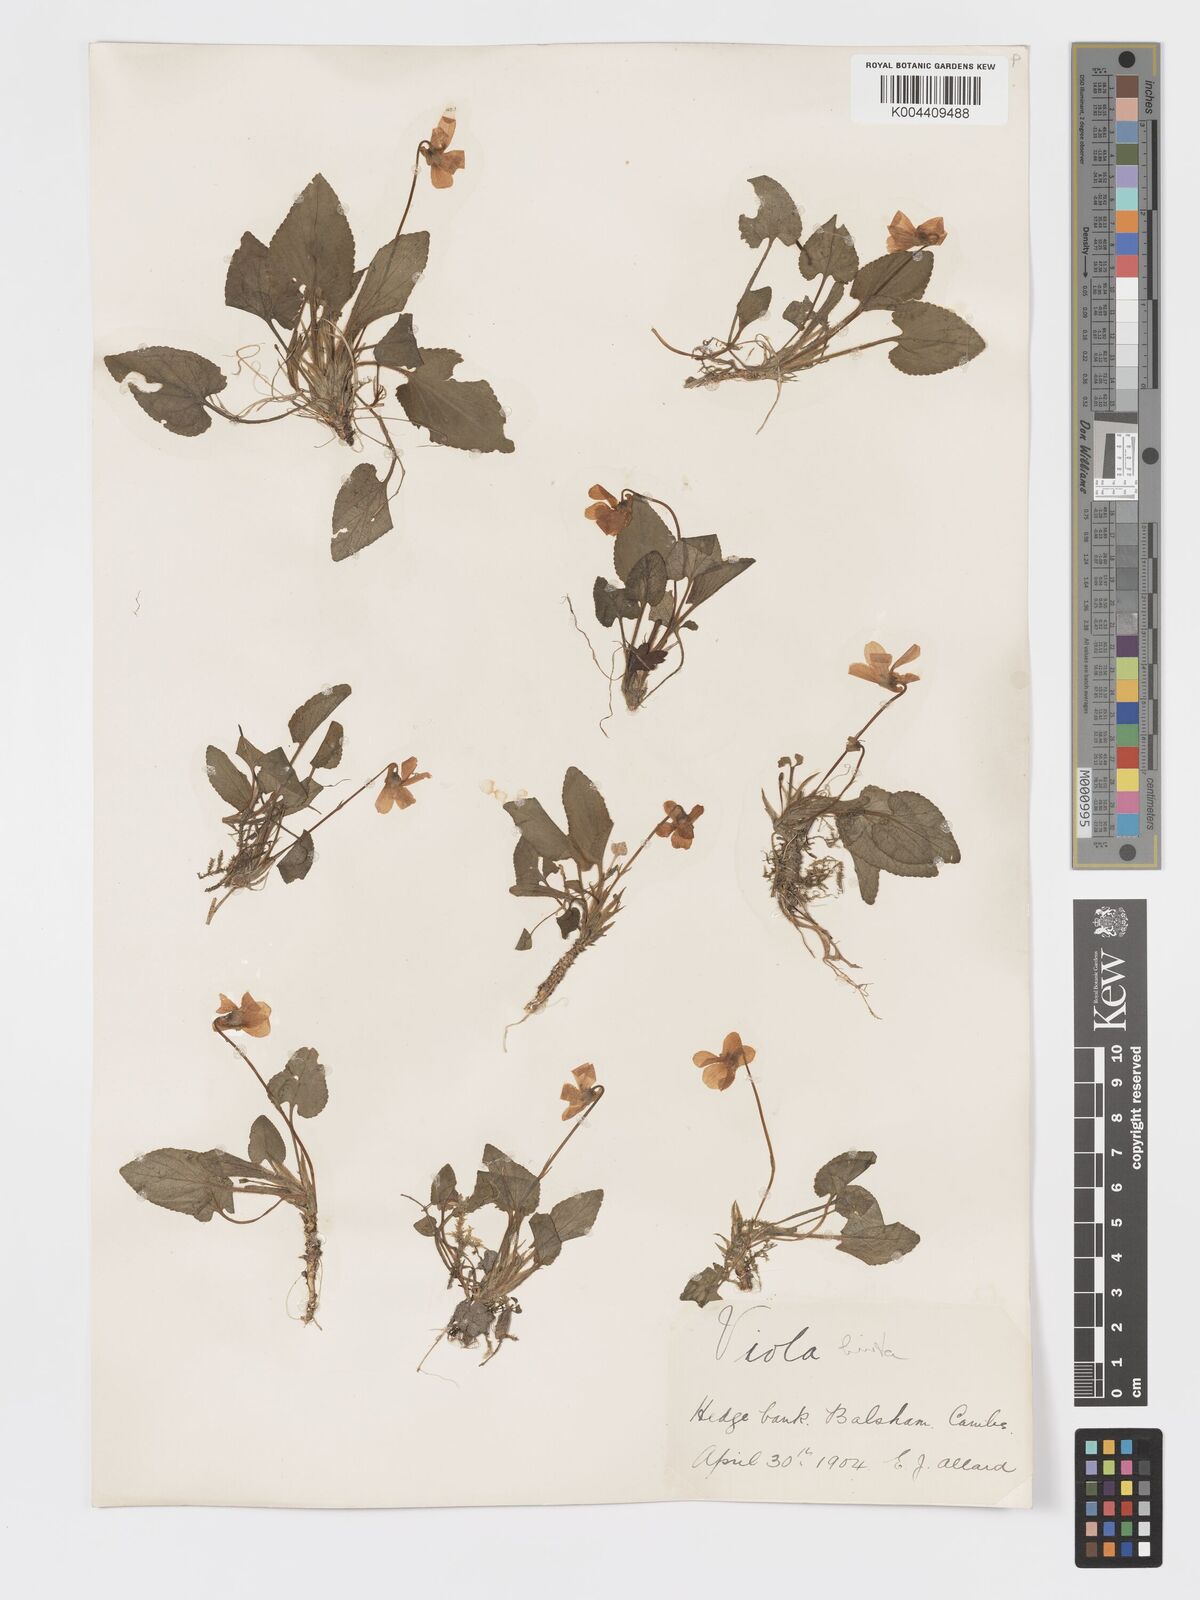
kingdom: Plantae
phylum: Tracheophyta
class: Magnoliopsida
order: Malpighiales
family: Violaceae
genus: Viola
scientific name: Viola
